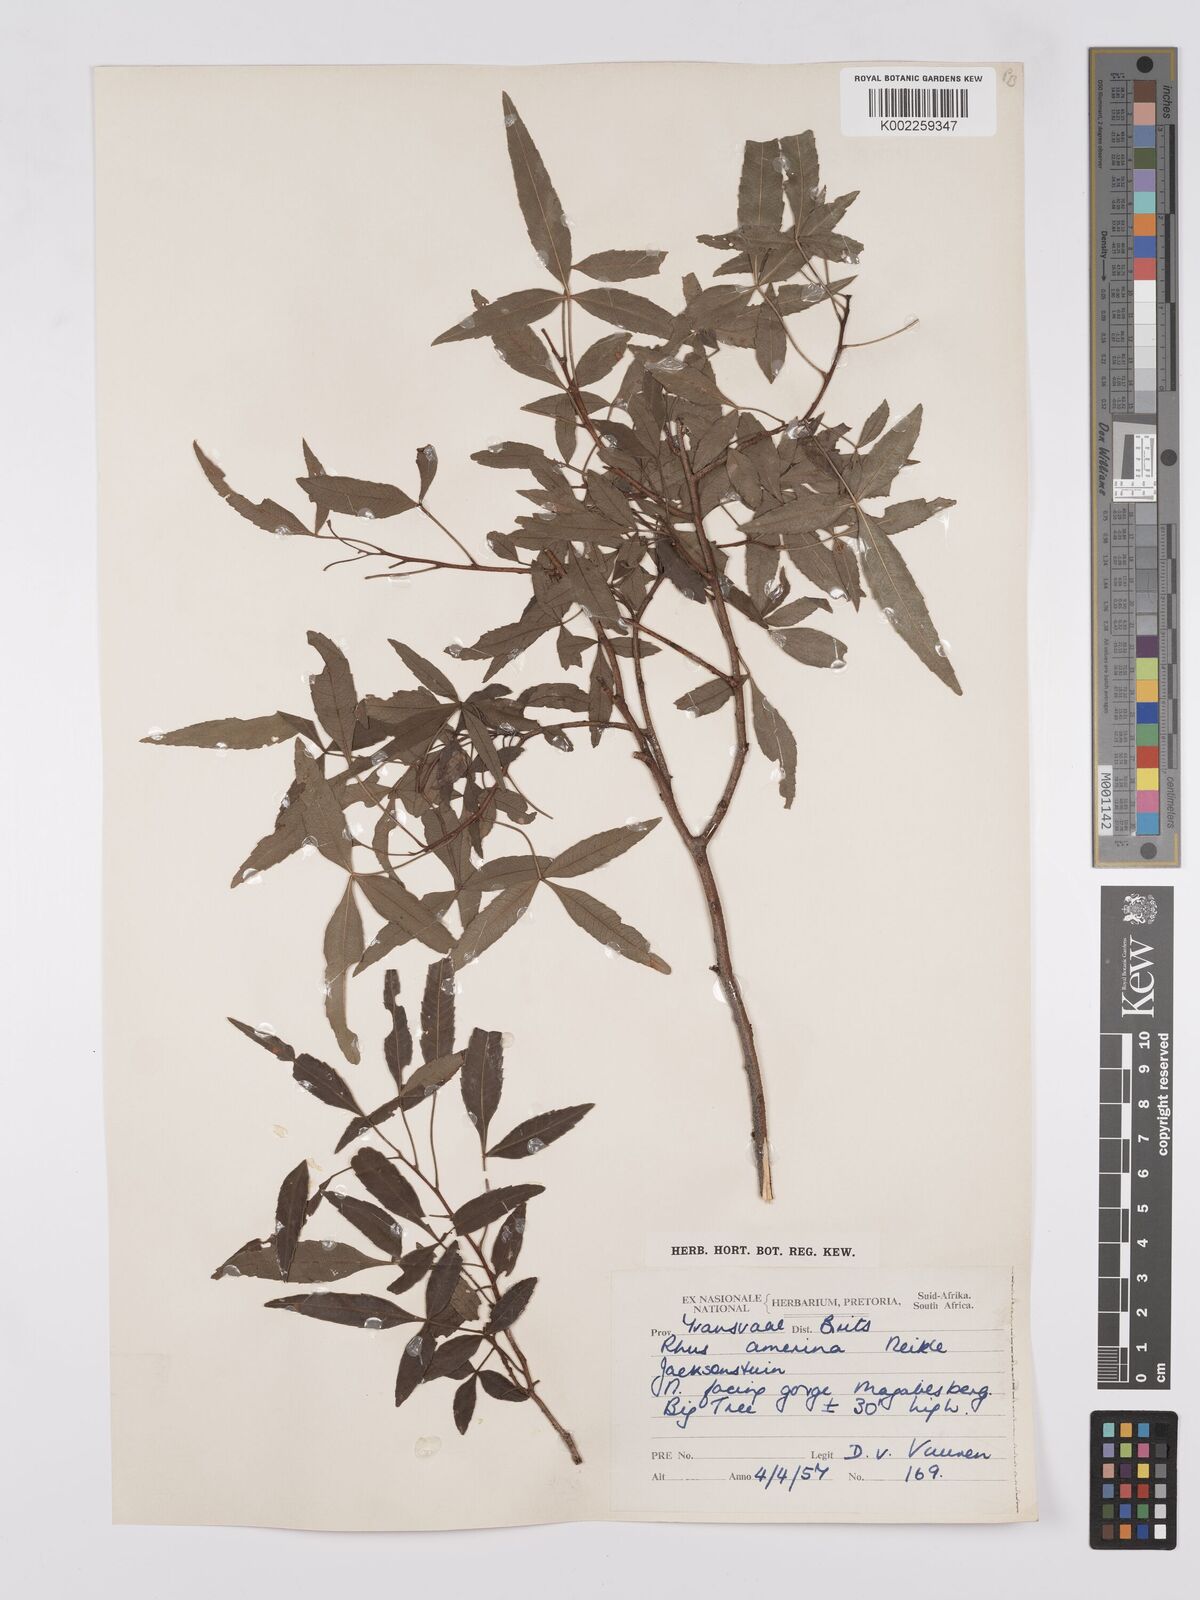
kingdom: Plantae
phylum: Tracheophyta
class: Magnoliopsida
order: Sapindales
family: Anacardiaceae
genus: Searsia
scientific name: Searsia leptodictya
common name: Mountain karee
